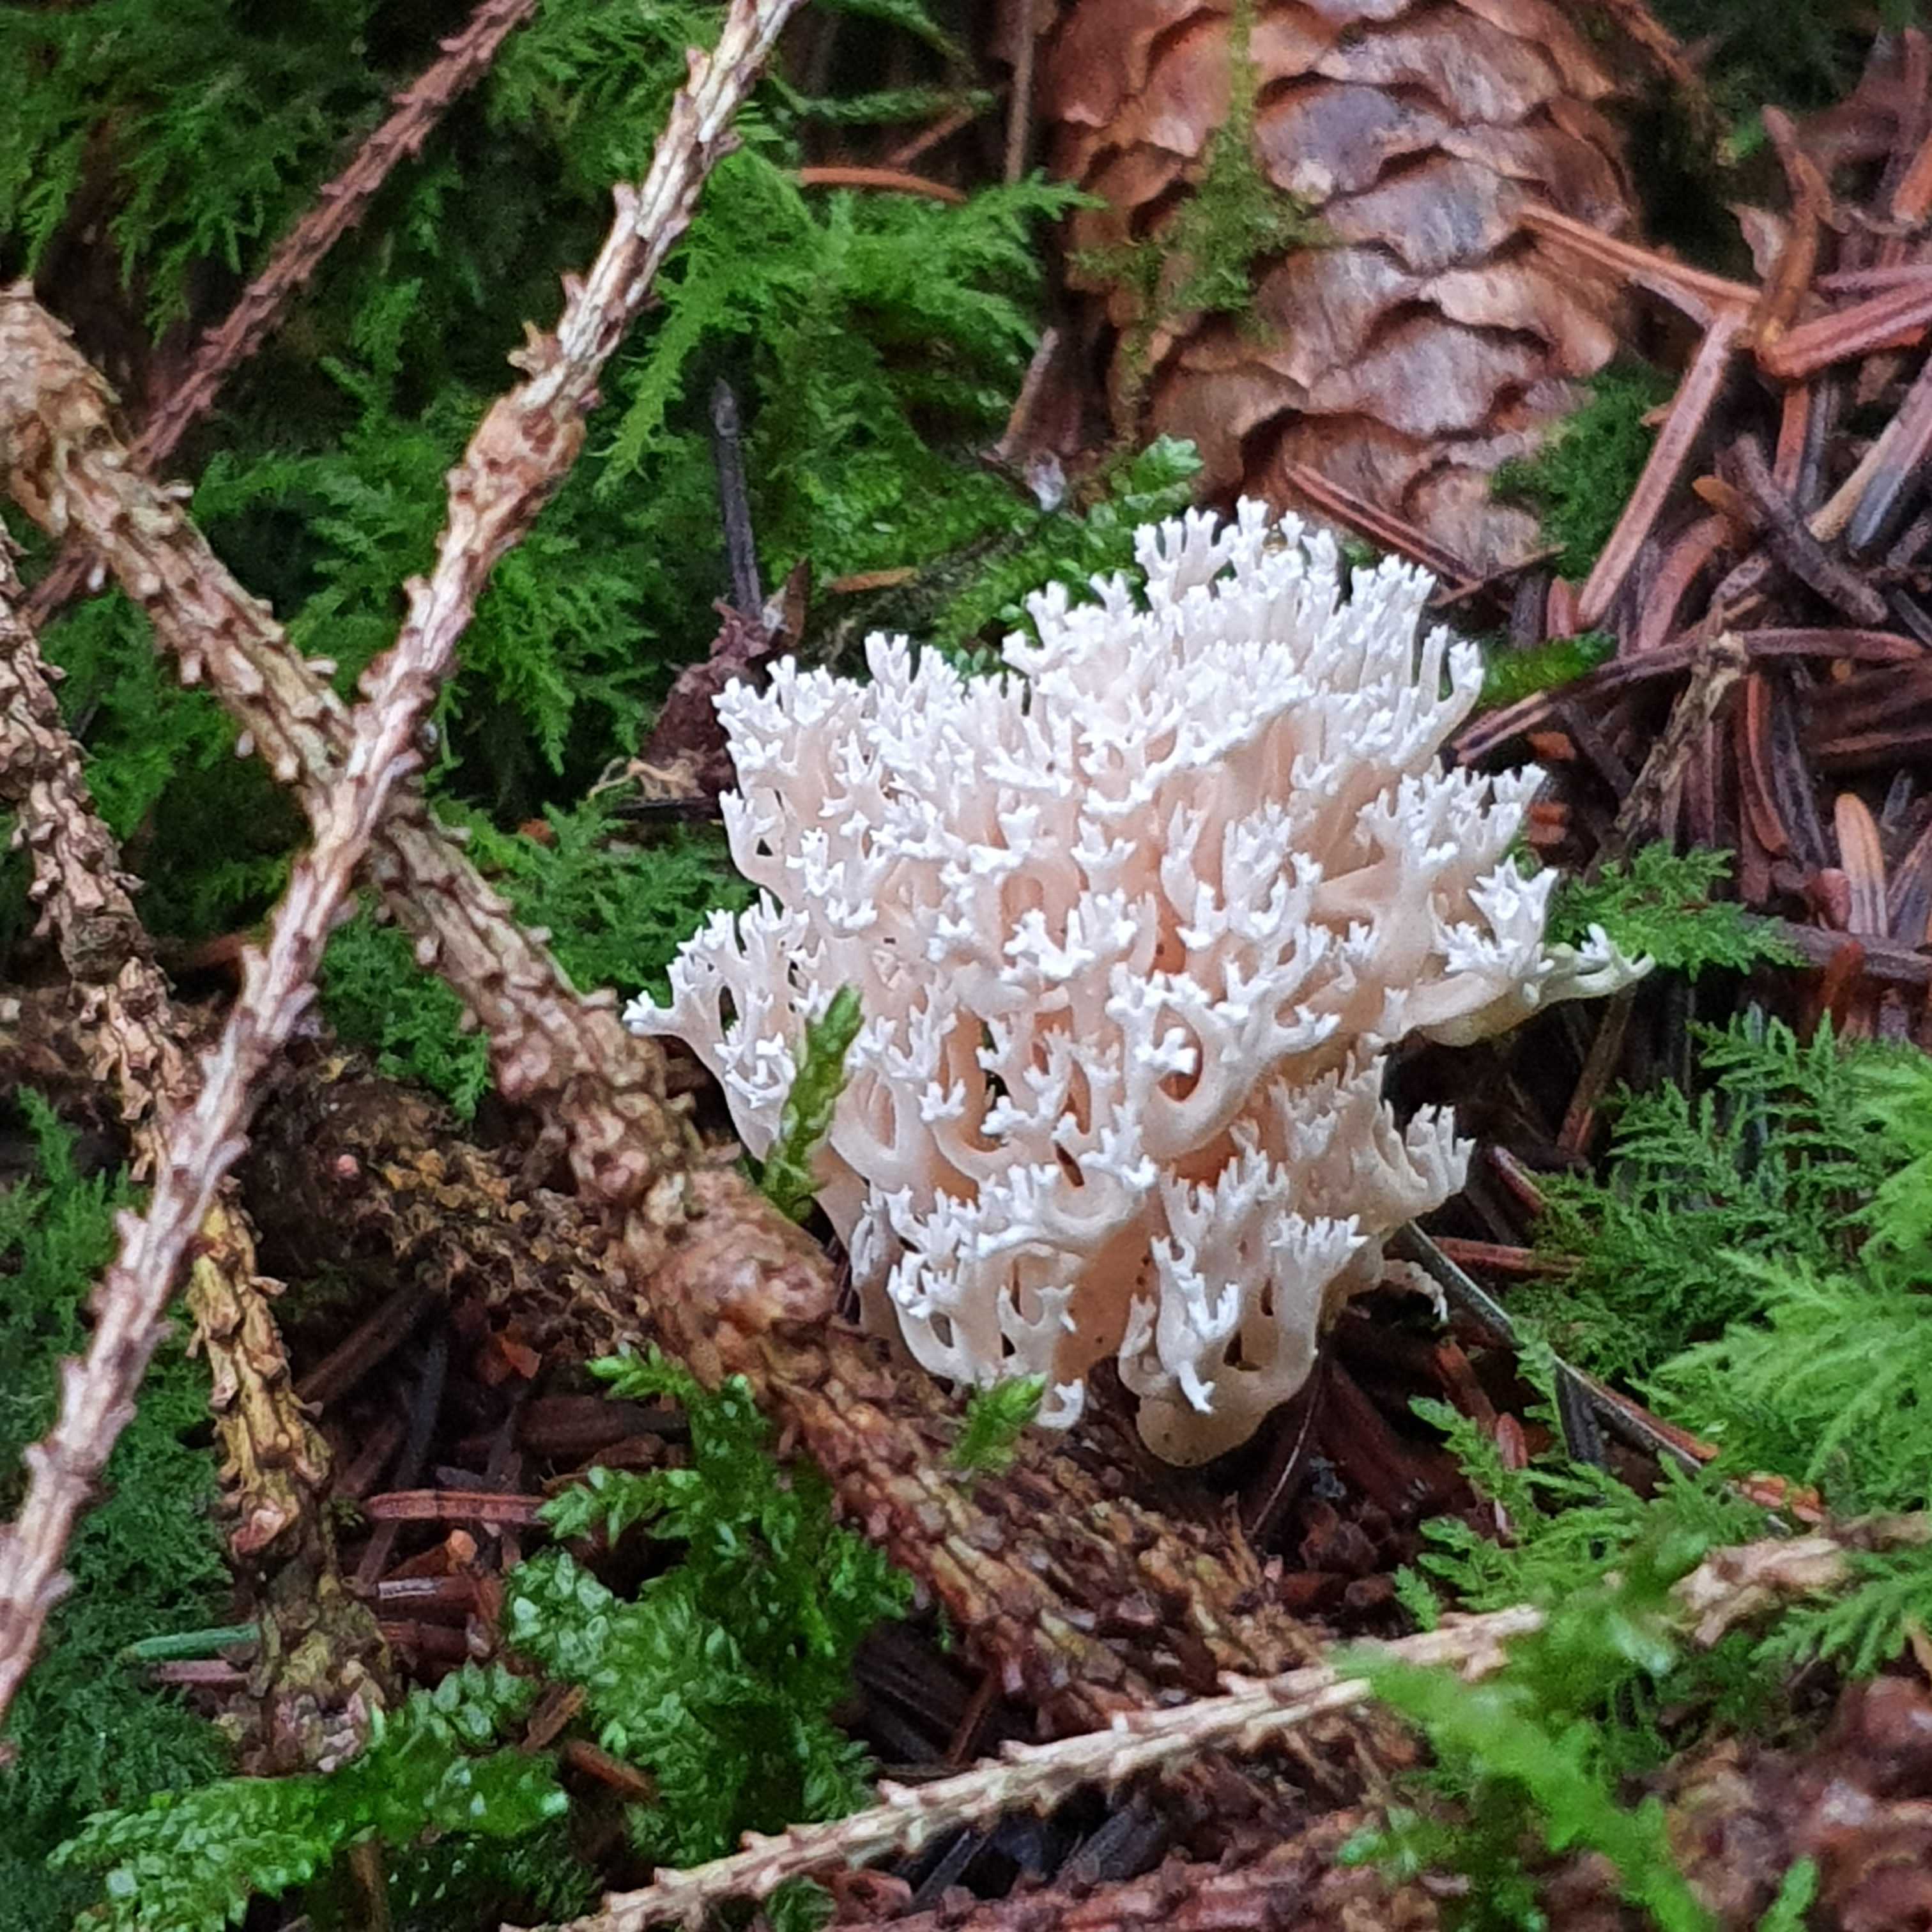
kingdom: Fungi
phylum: Basidiomycota
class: Agaricomycetes
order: Gomphales
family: Gomphaceae
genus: Ramaria
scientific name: Ramaria gracilis
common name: anis-koralsvamp
